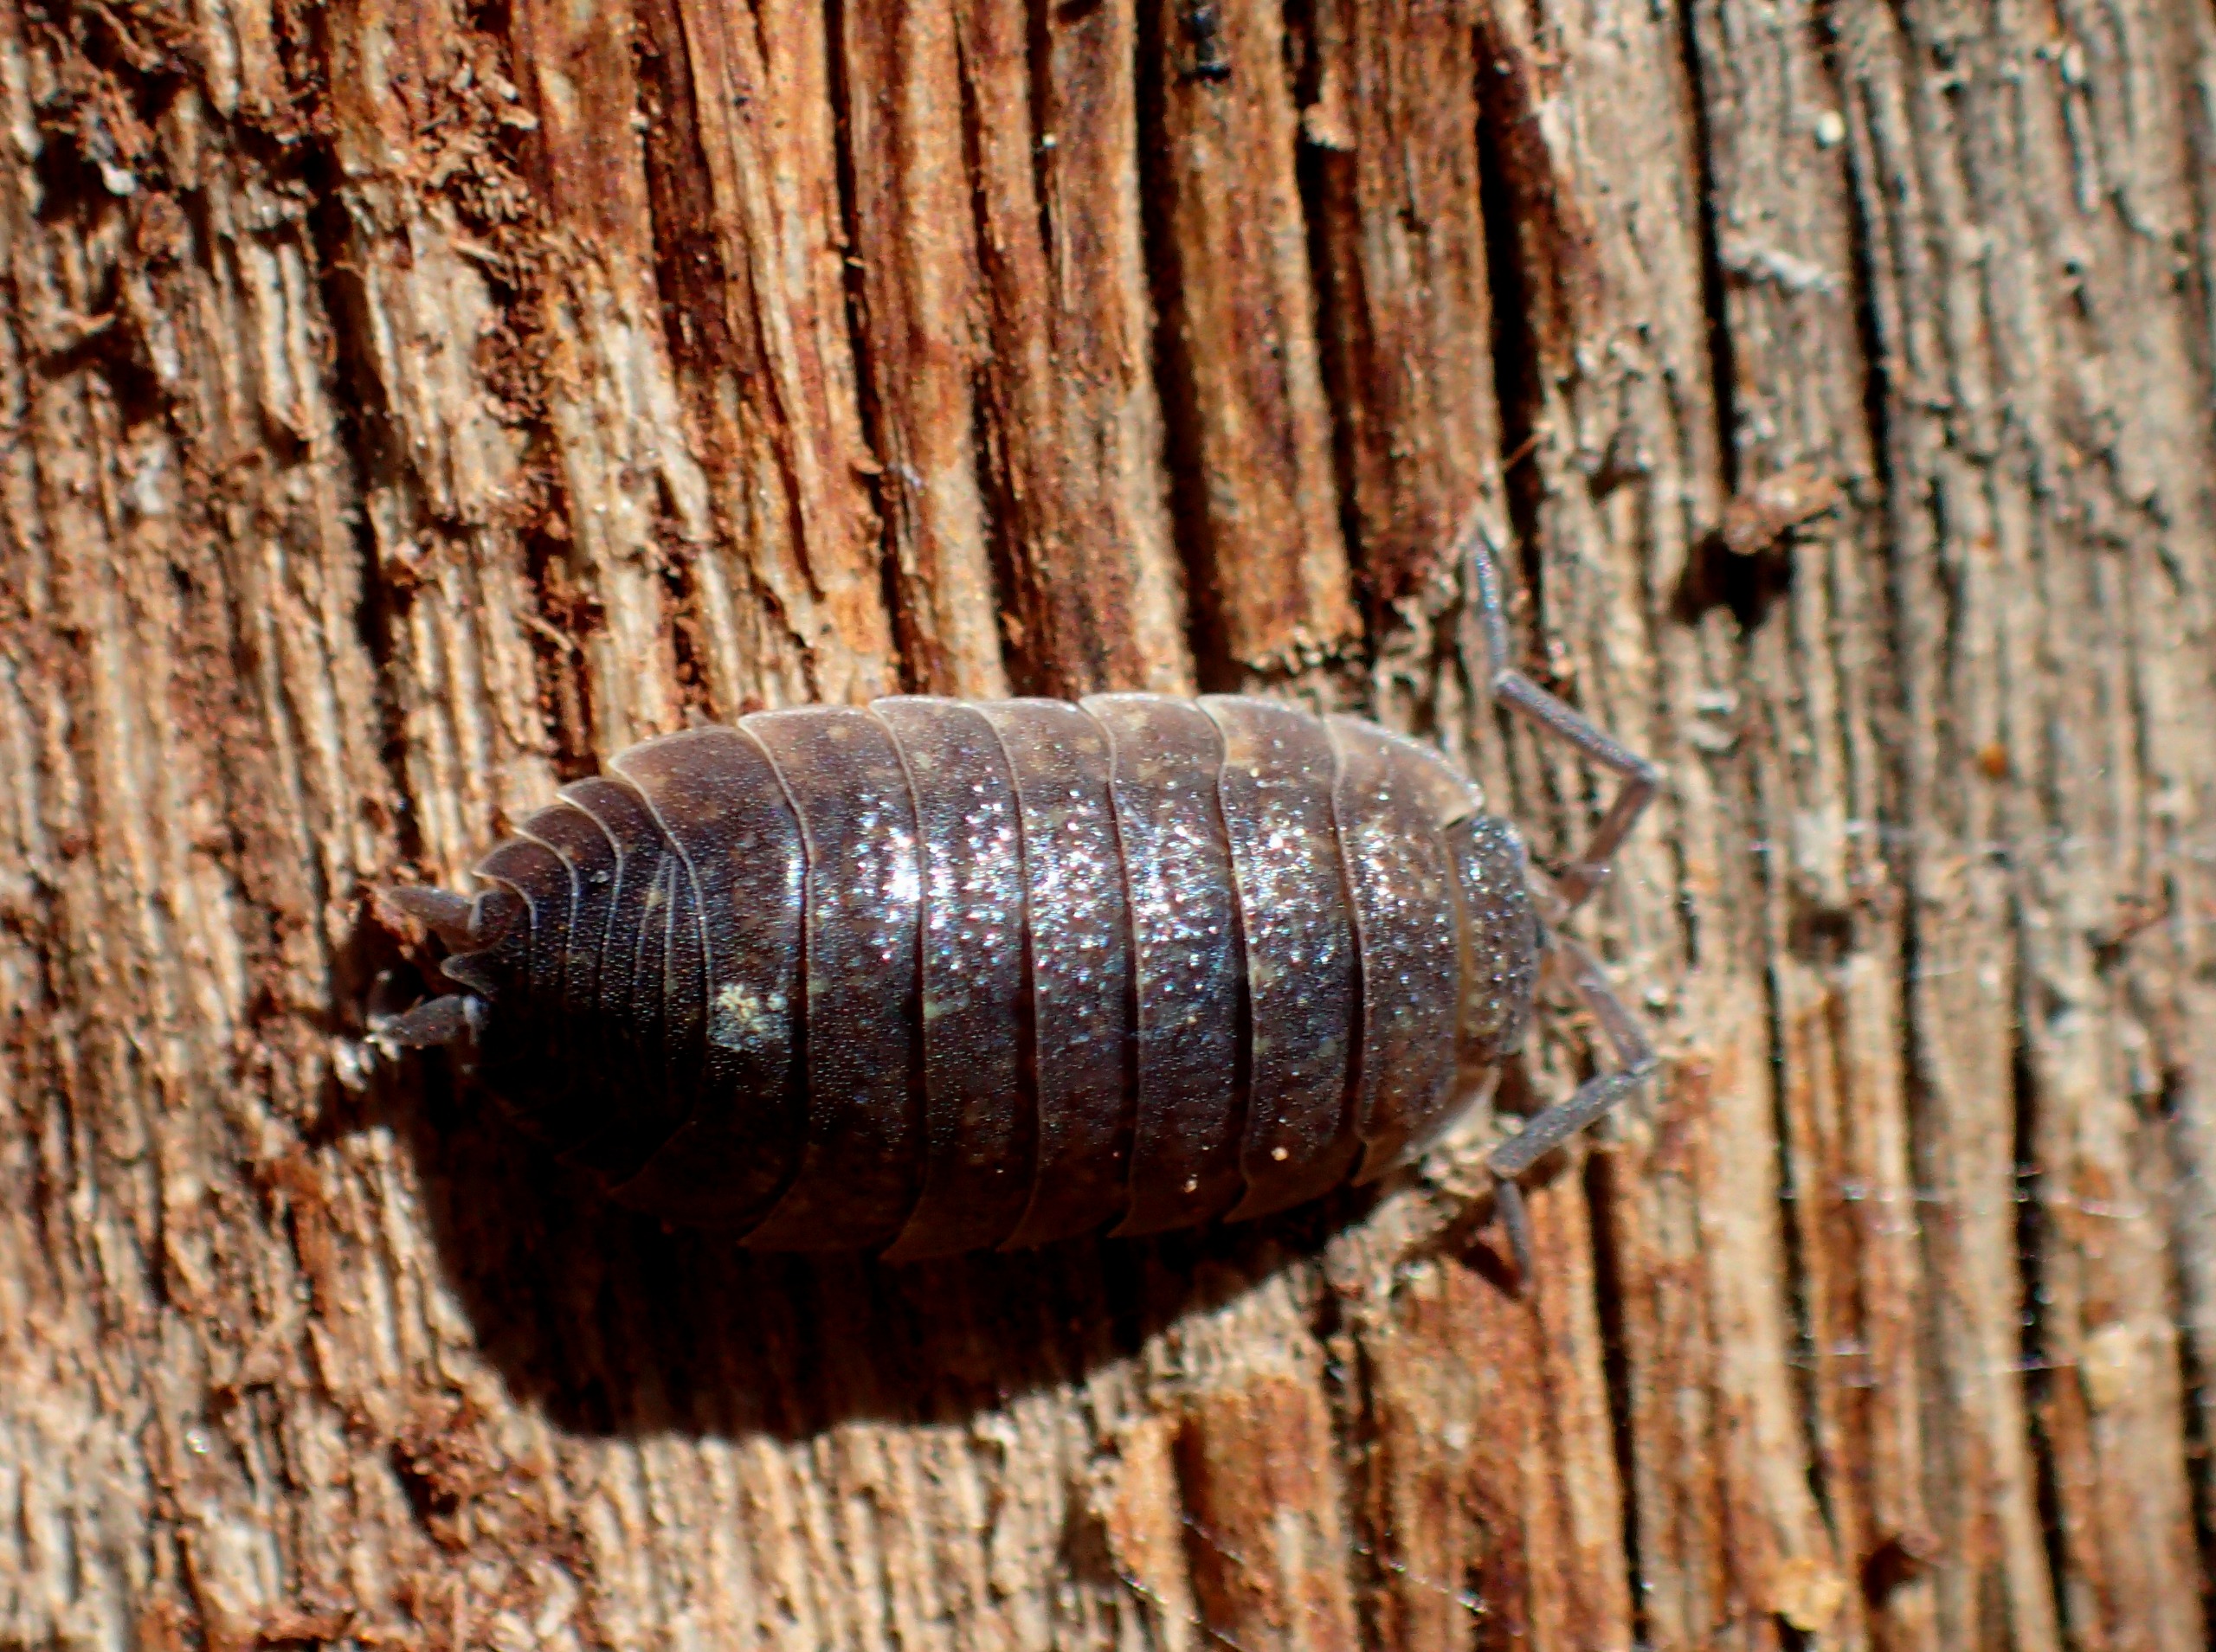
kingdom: Animalia
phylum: Arthropoda
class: Malacostraca
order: Isopoda
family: Porcellionidae
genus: Porcellio
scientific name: Porcellio scaber
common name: Grå bænkebider
